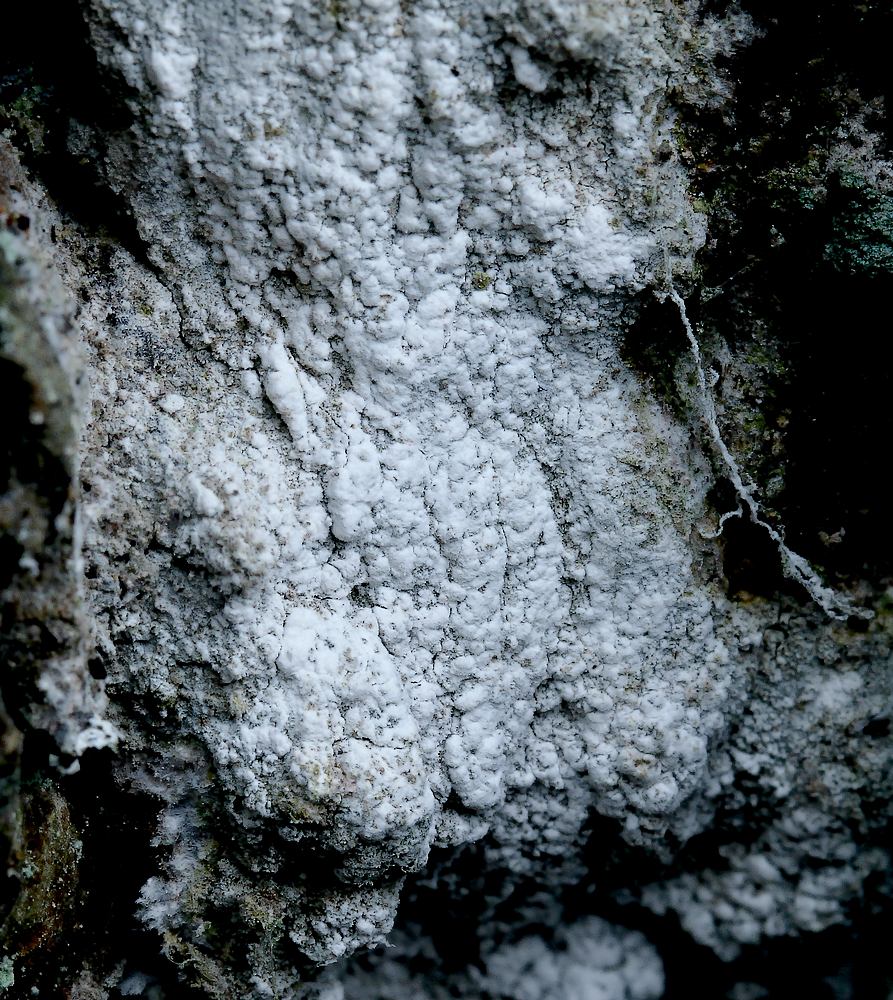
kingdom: Fungi
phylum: Basidiomycota
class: Agaricomycetes
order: Corticiales
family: Corticiaceae
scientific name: Corticiaceae
